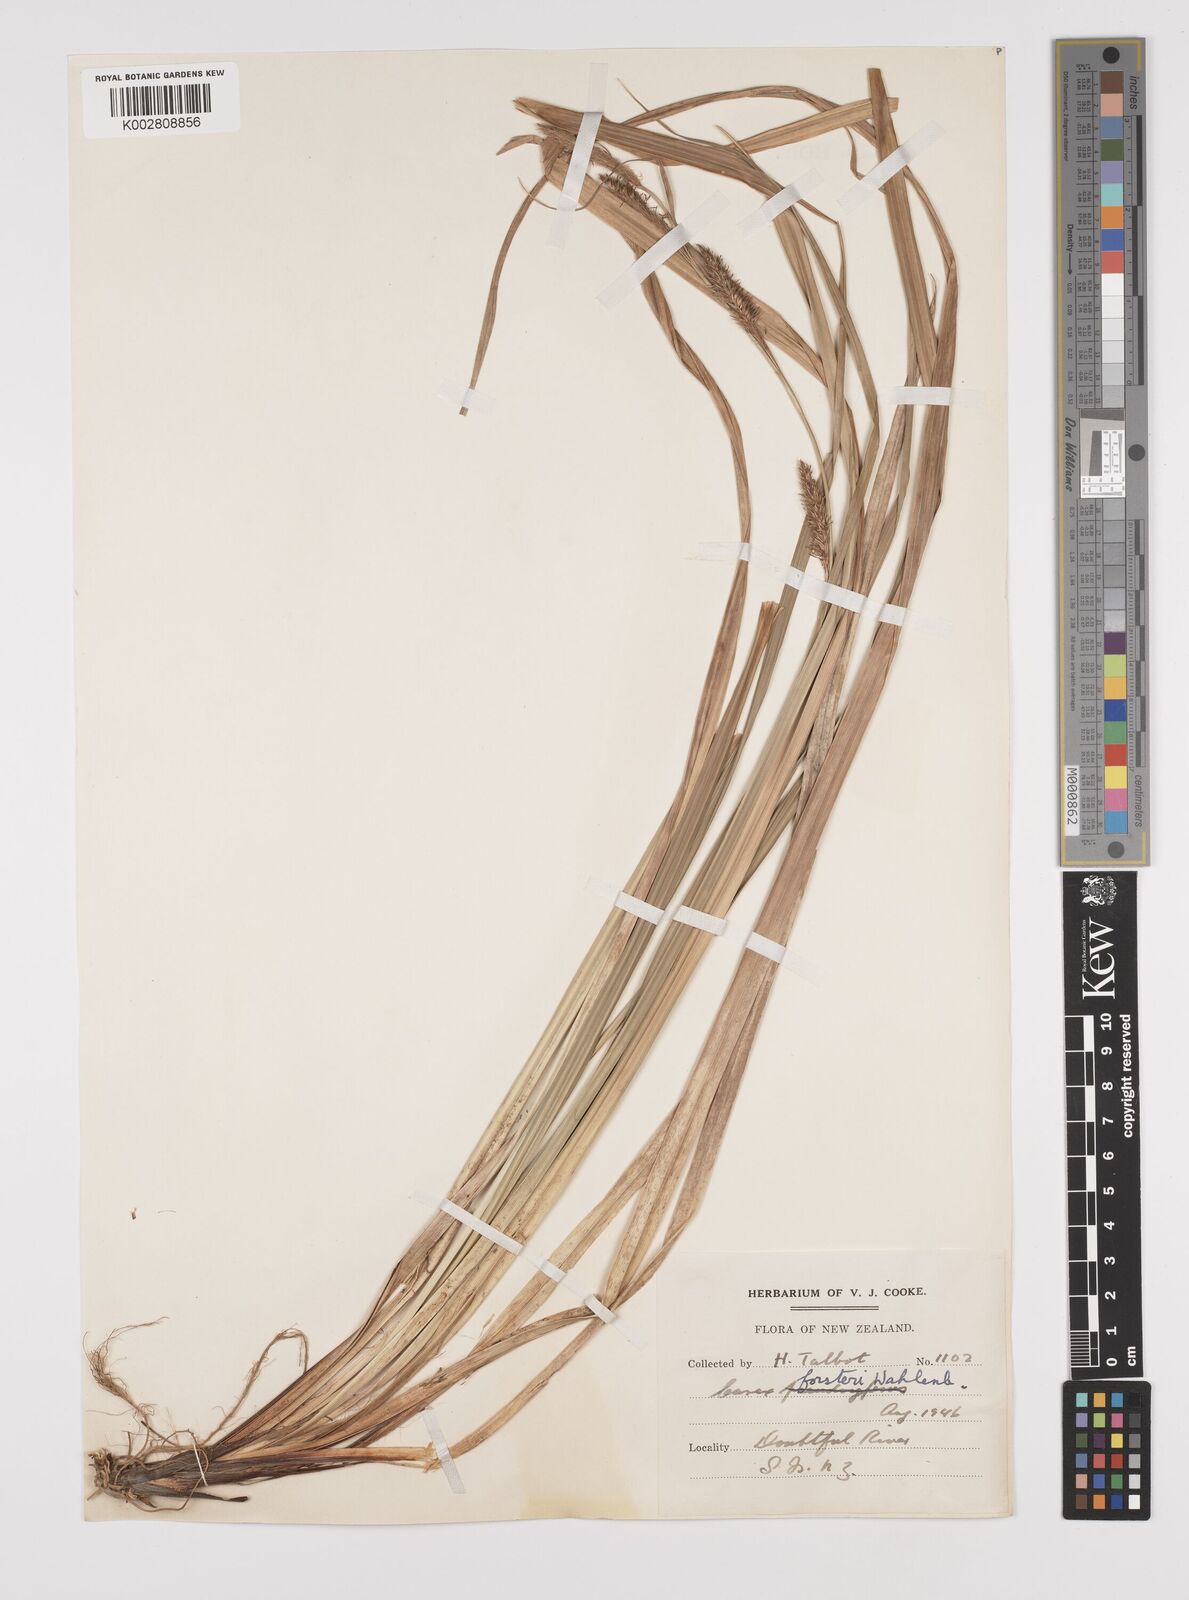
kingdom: Plantae
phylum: Tracheophyta
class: Liliopsida
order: Poales
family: Cyperaceae
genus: Carex
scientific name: Carex forsteri
